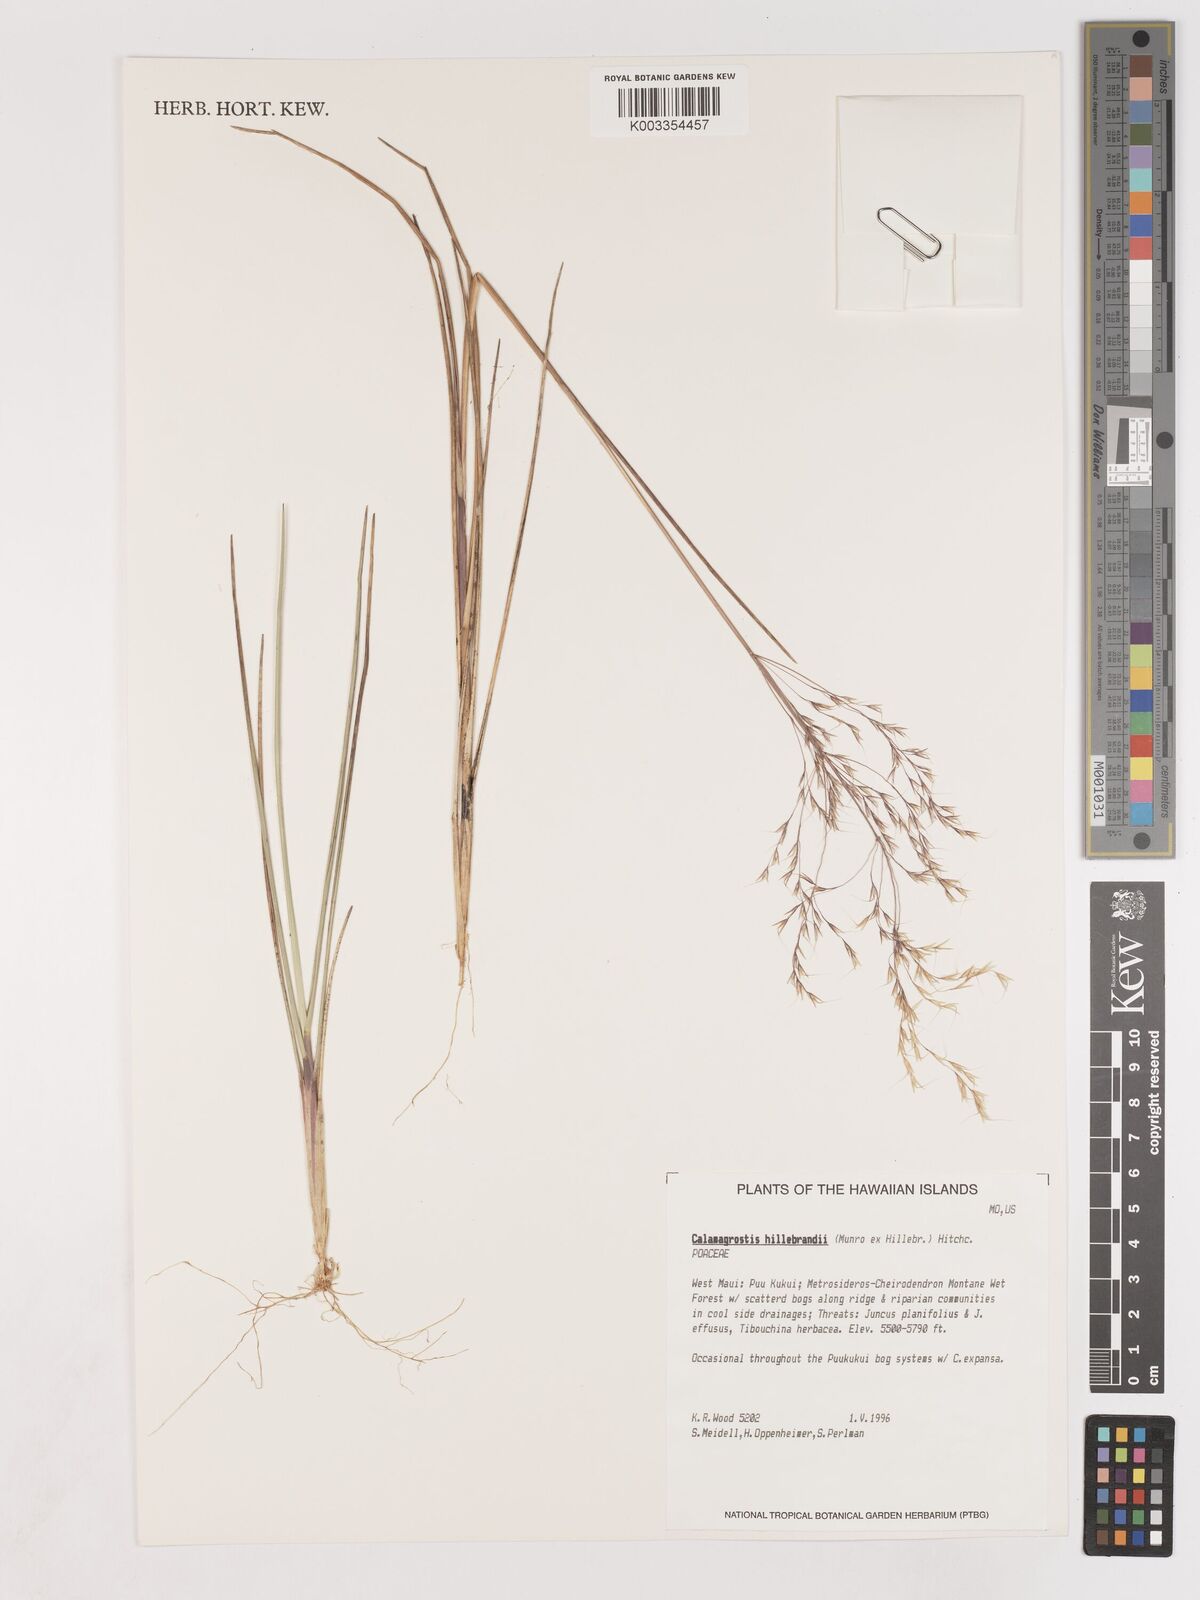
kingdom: Plantae
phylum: Tracheophyta
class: Liliopsida
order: Poales
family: Poaceae
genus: Calamagrostis
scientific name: Calamagrostis hillebrandii
